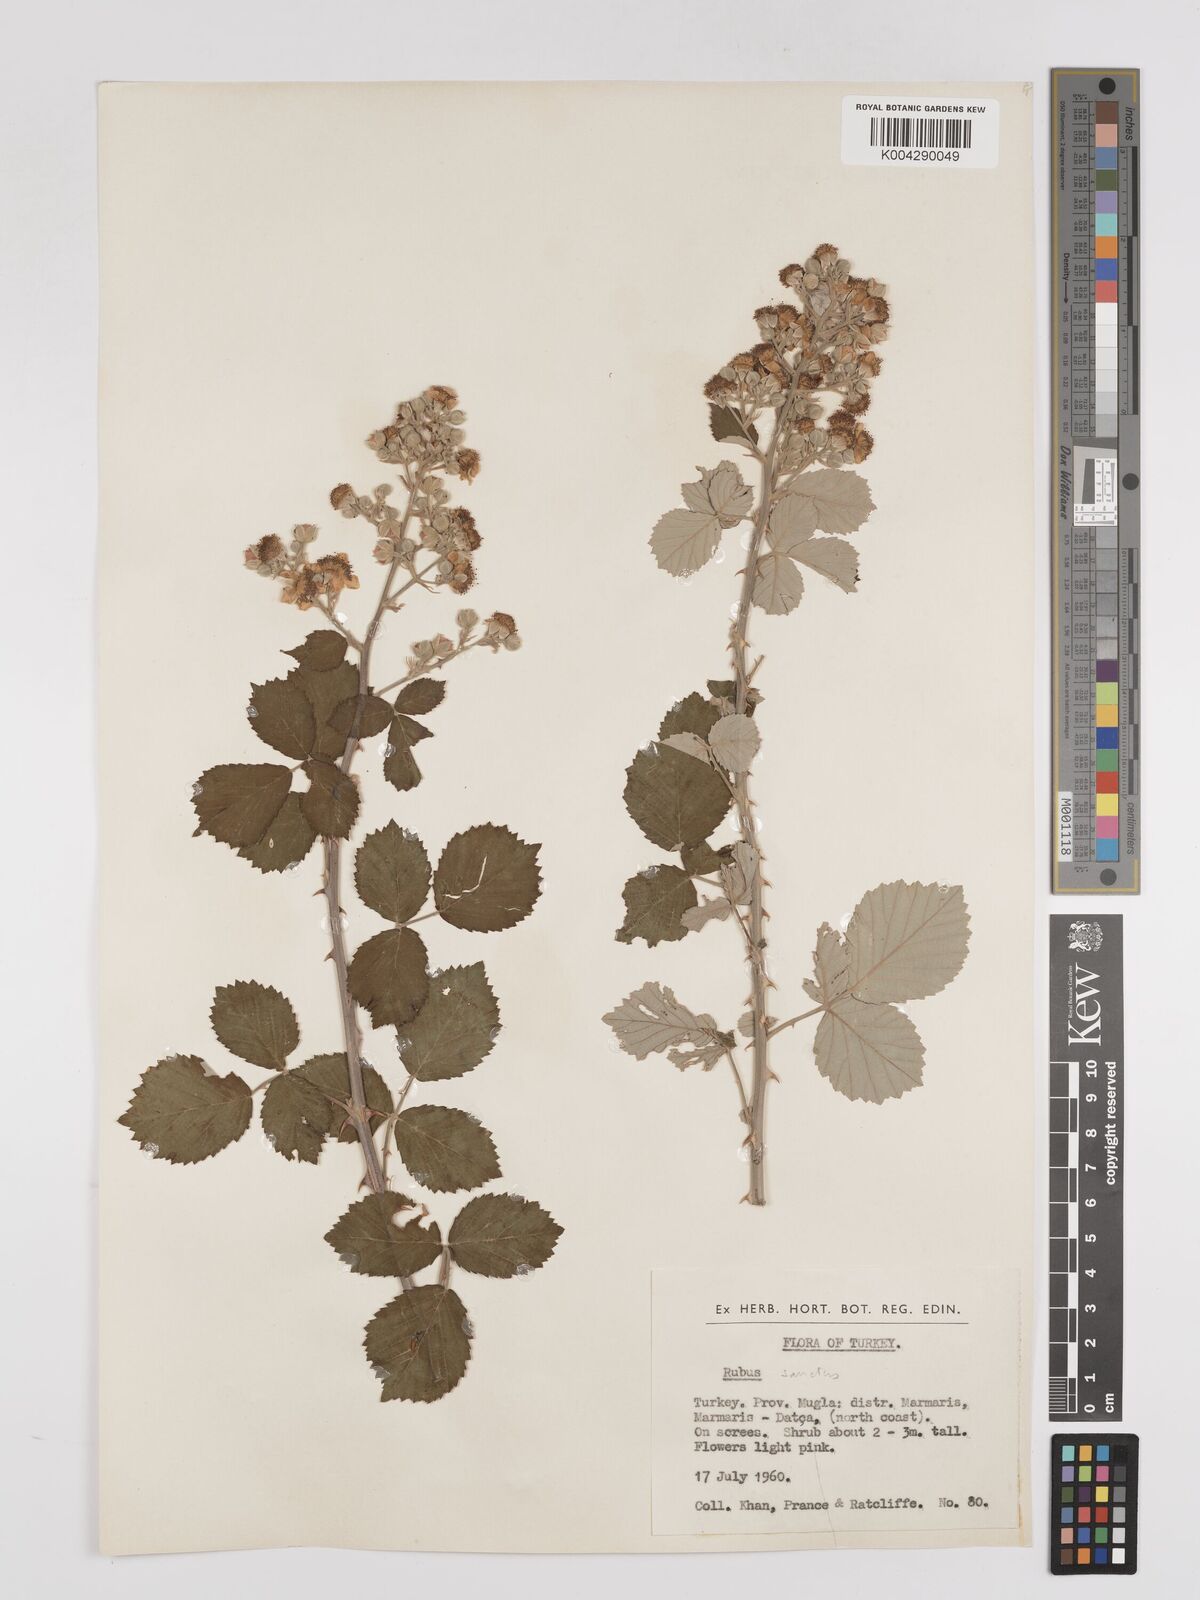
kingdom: Plantae
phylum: Tracheophyta
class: Magnoliopsida
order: Rosales
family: Rosaceae
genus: Rubus
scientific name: Rubus sanctus
